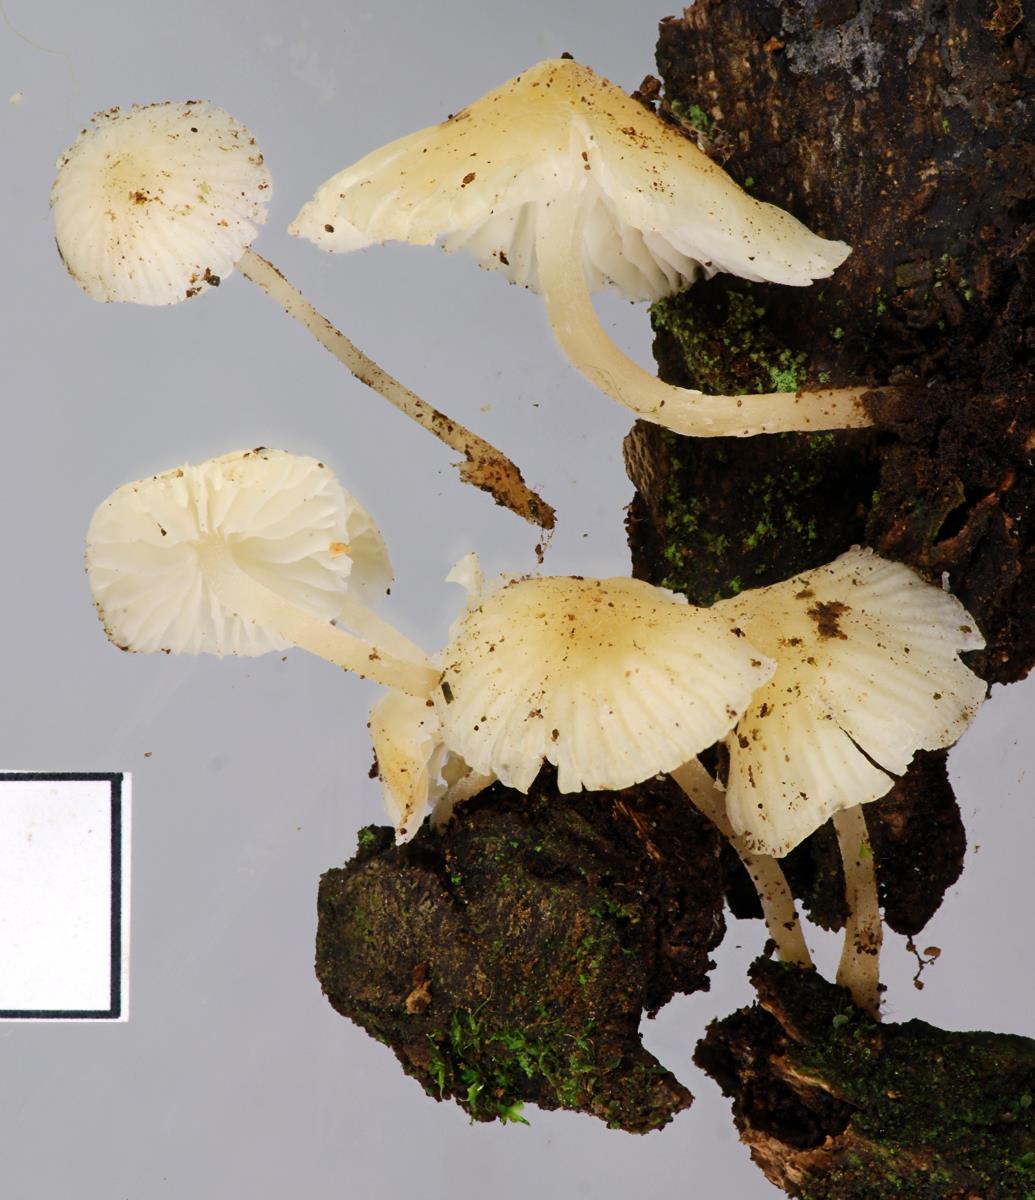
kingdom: Fungi
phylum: Basidiomycota
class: Agaricomycetes
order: Agaricales
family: Porotheleaceae
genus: Phloeomana
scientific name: Phloeomana minutula
